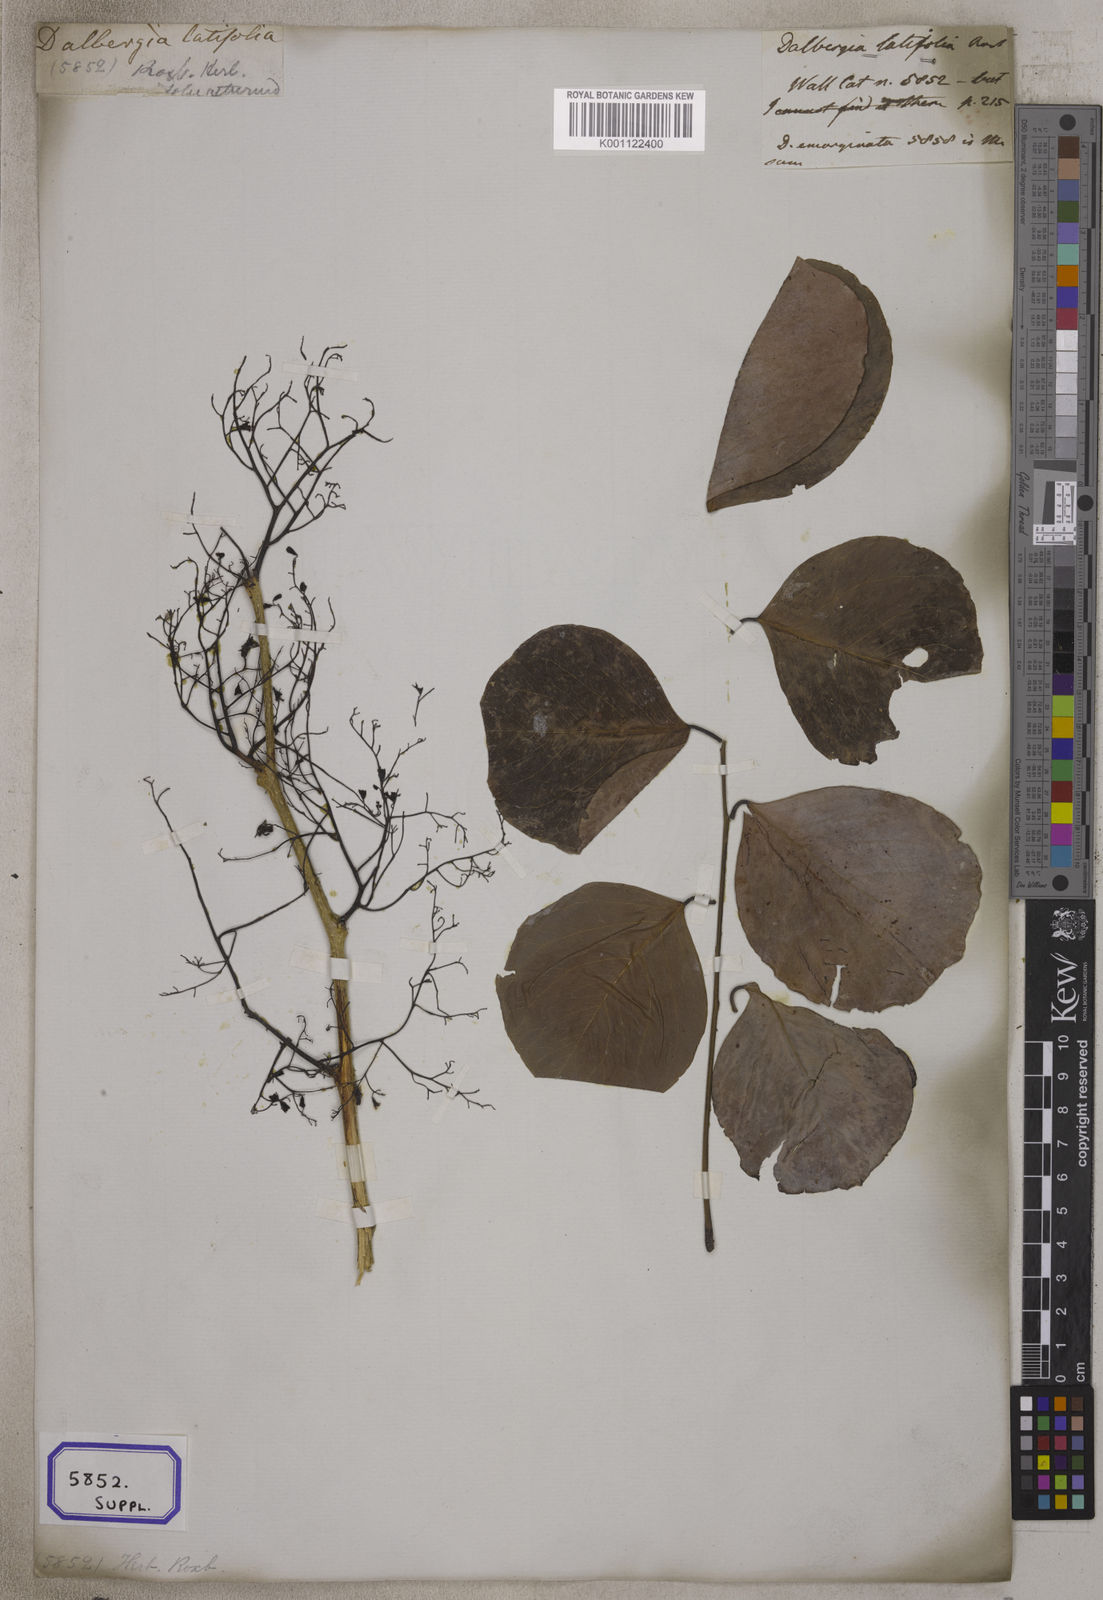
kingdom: Plantae
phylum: Tracheophyta
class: Magnoliopsida
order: Fabales
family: Fabaceae
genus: Dalbergia
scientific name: Dalbergia latifolia
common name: Bombay blackwood
